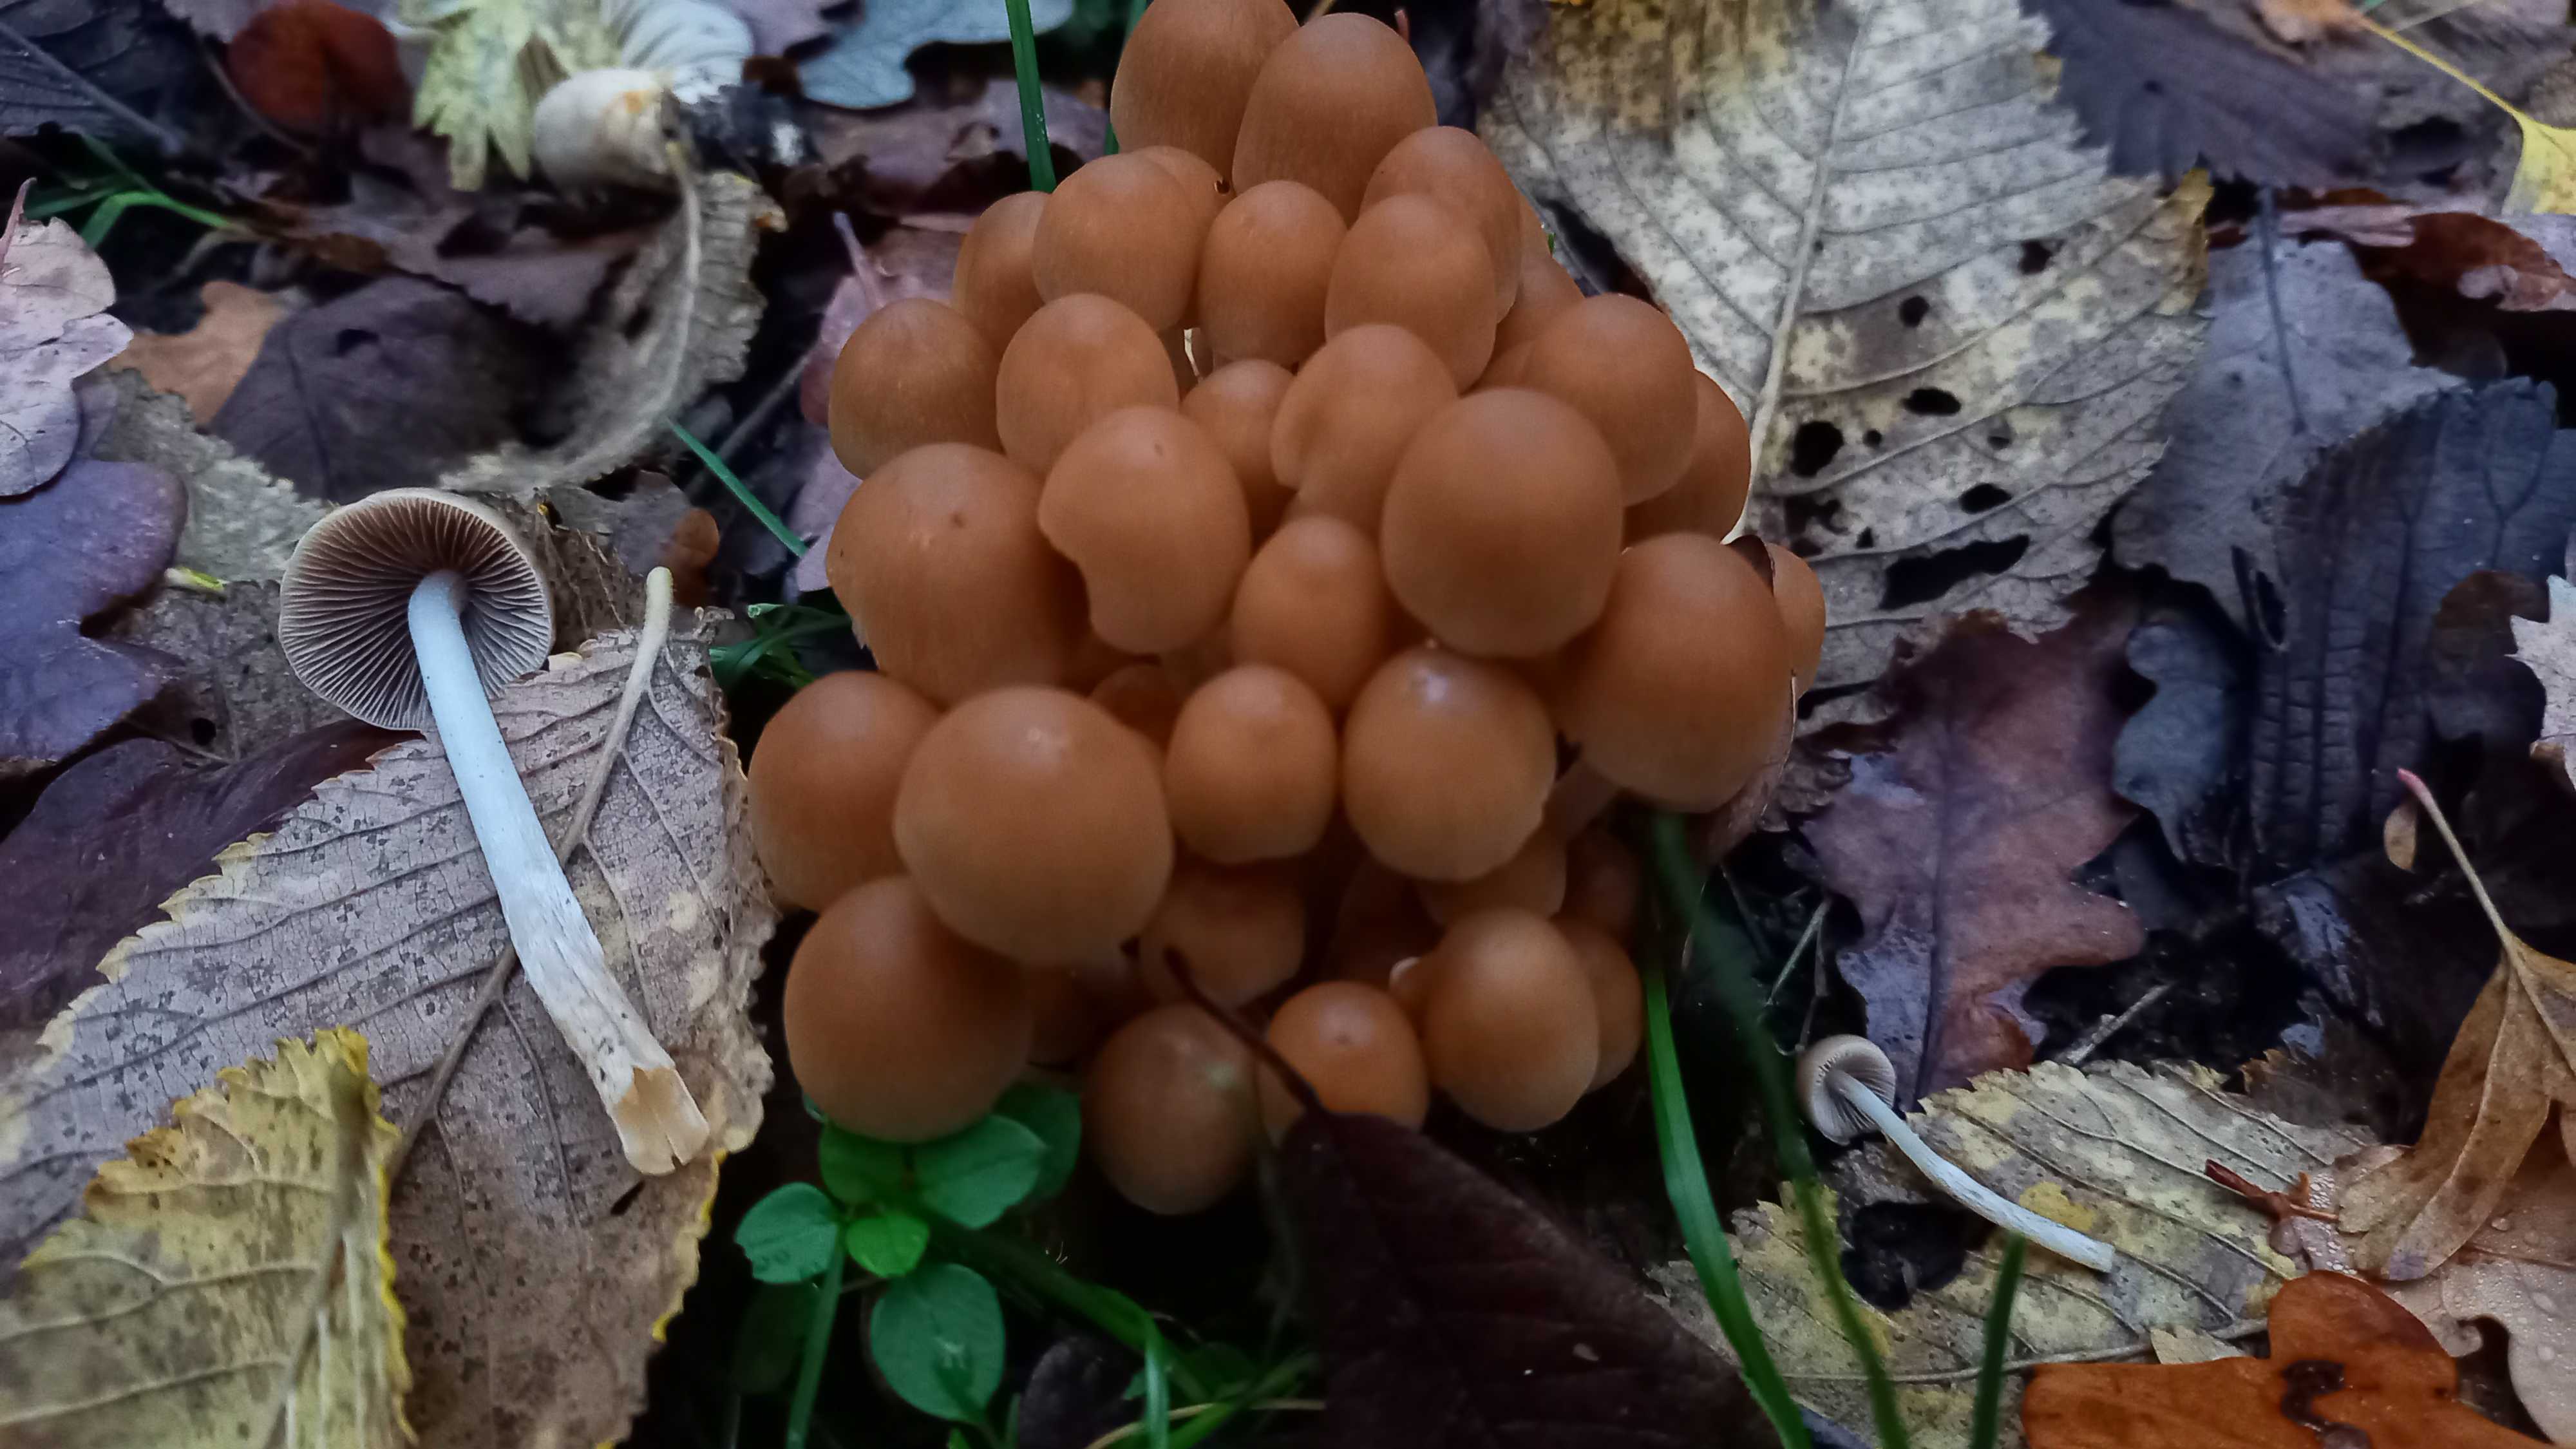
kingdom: Fungi
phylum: Basidiomycota
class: Agaricomycetes
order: Agaricales
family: Psathyrellaceae
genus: Psathyrella
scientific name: Psathyrella piluliformis
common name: lysstokket mørkhat
